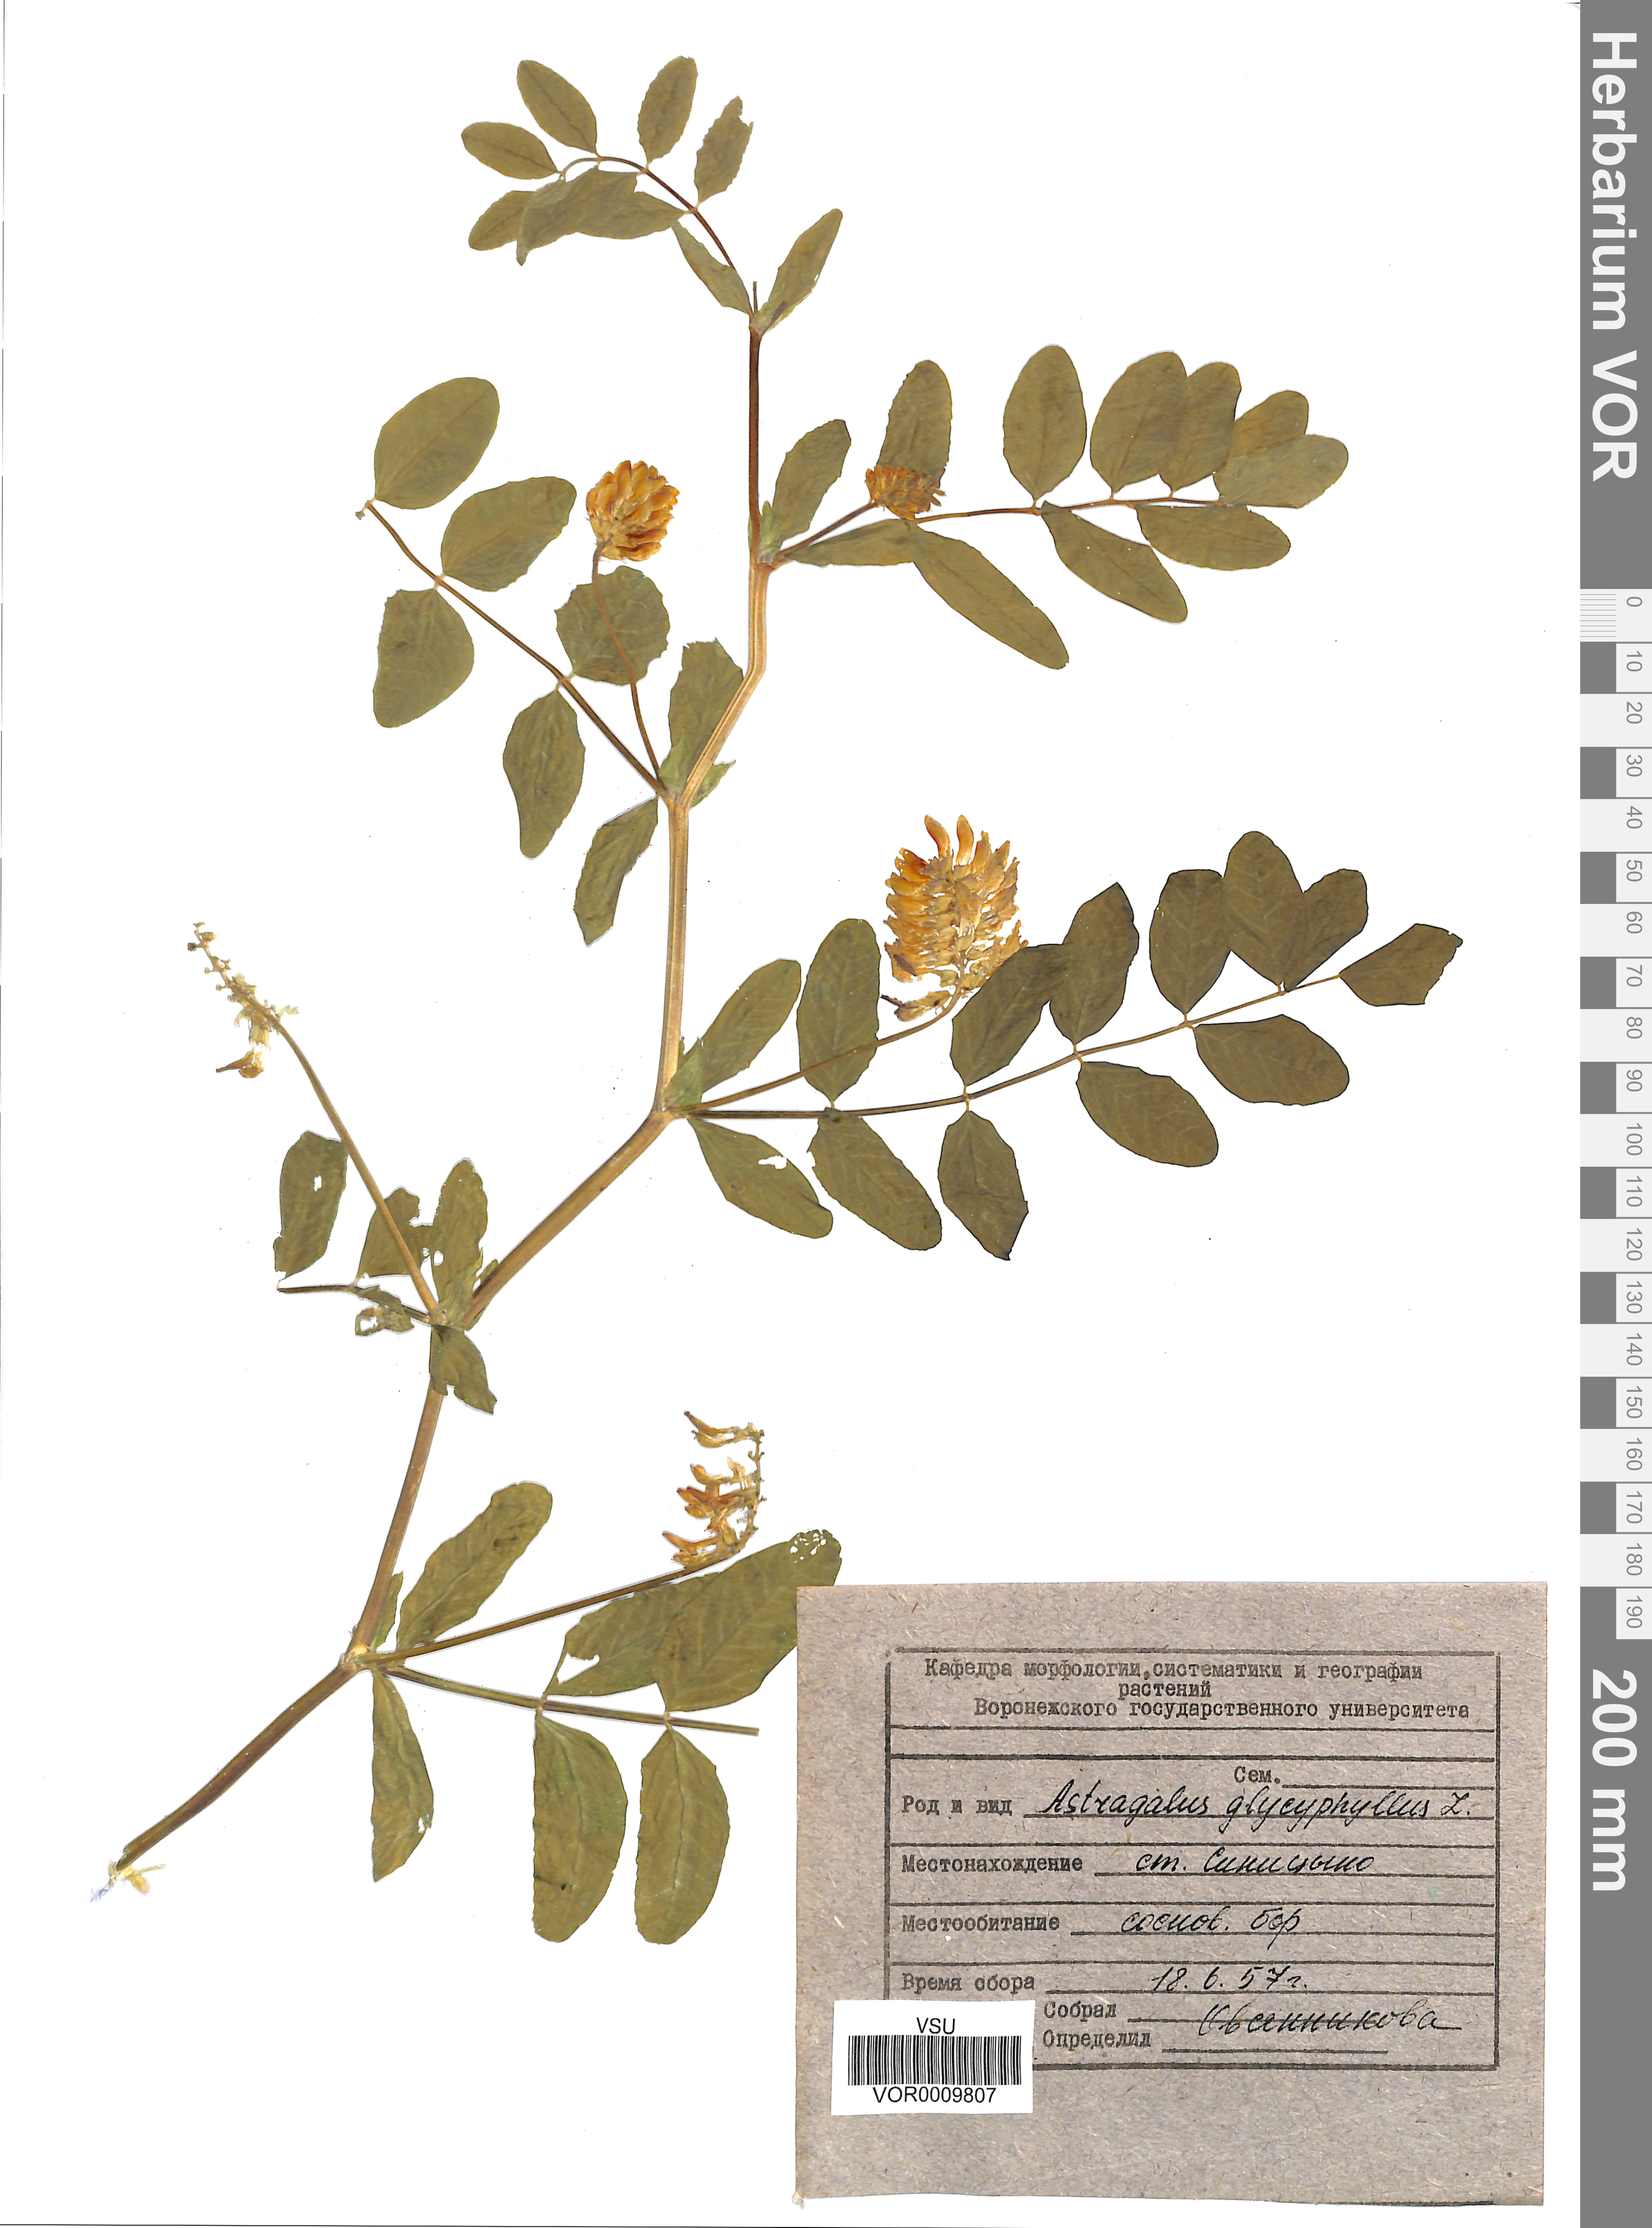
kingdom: Plantae
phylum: Tracheophyta
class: Magnoliopsida
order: Fabales
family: Fabaceae
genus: Astragalus
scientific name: Astragalus glycyphyllos
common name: Wild liquorice
